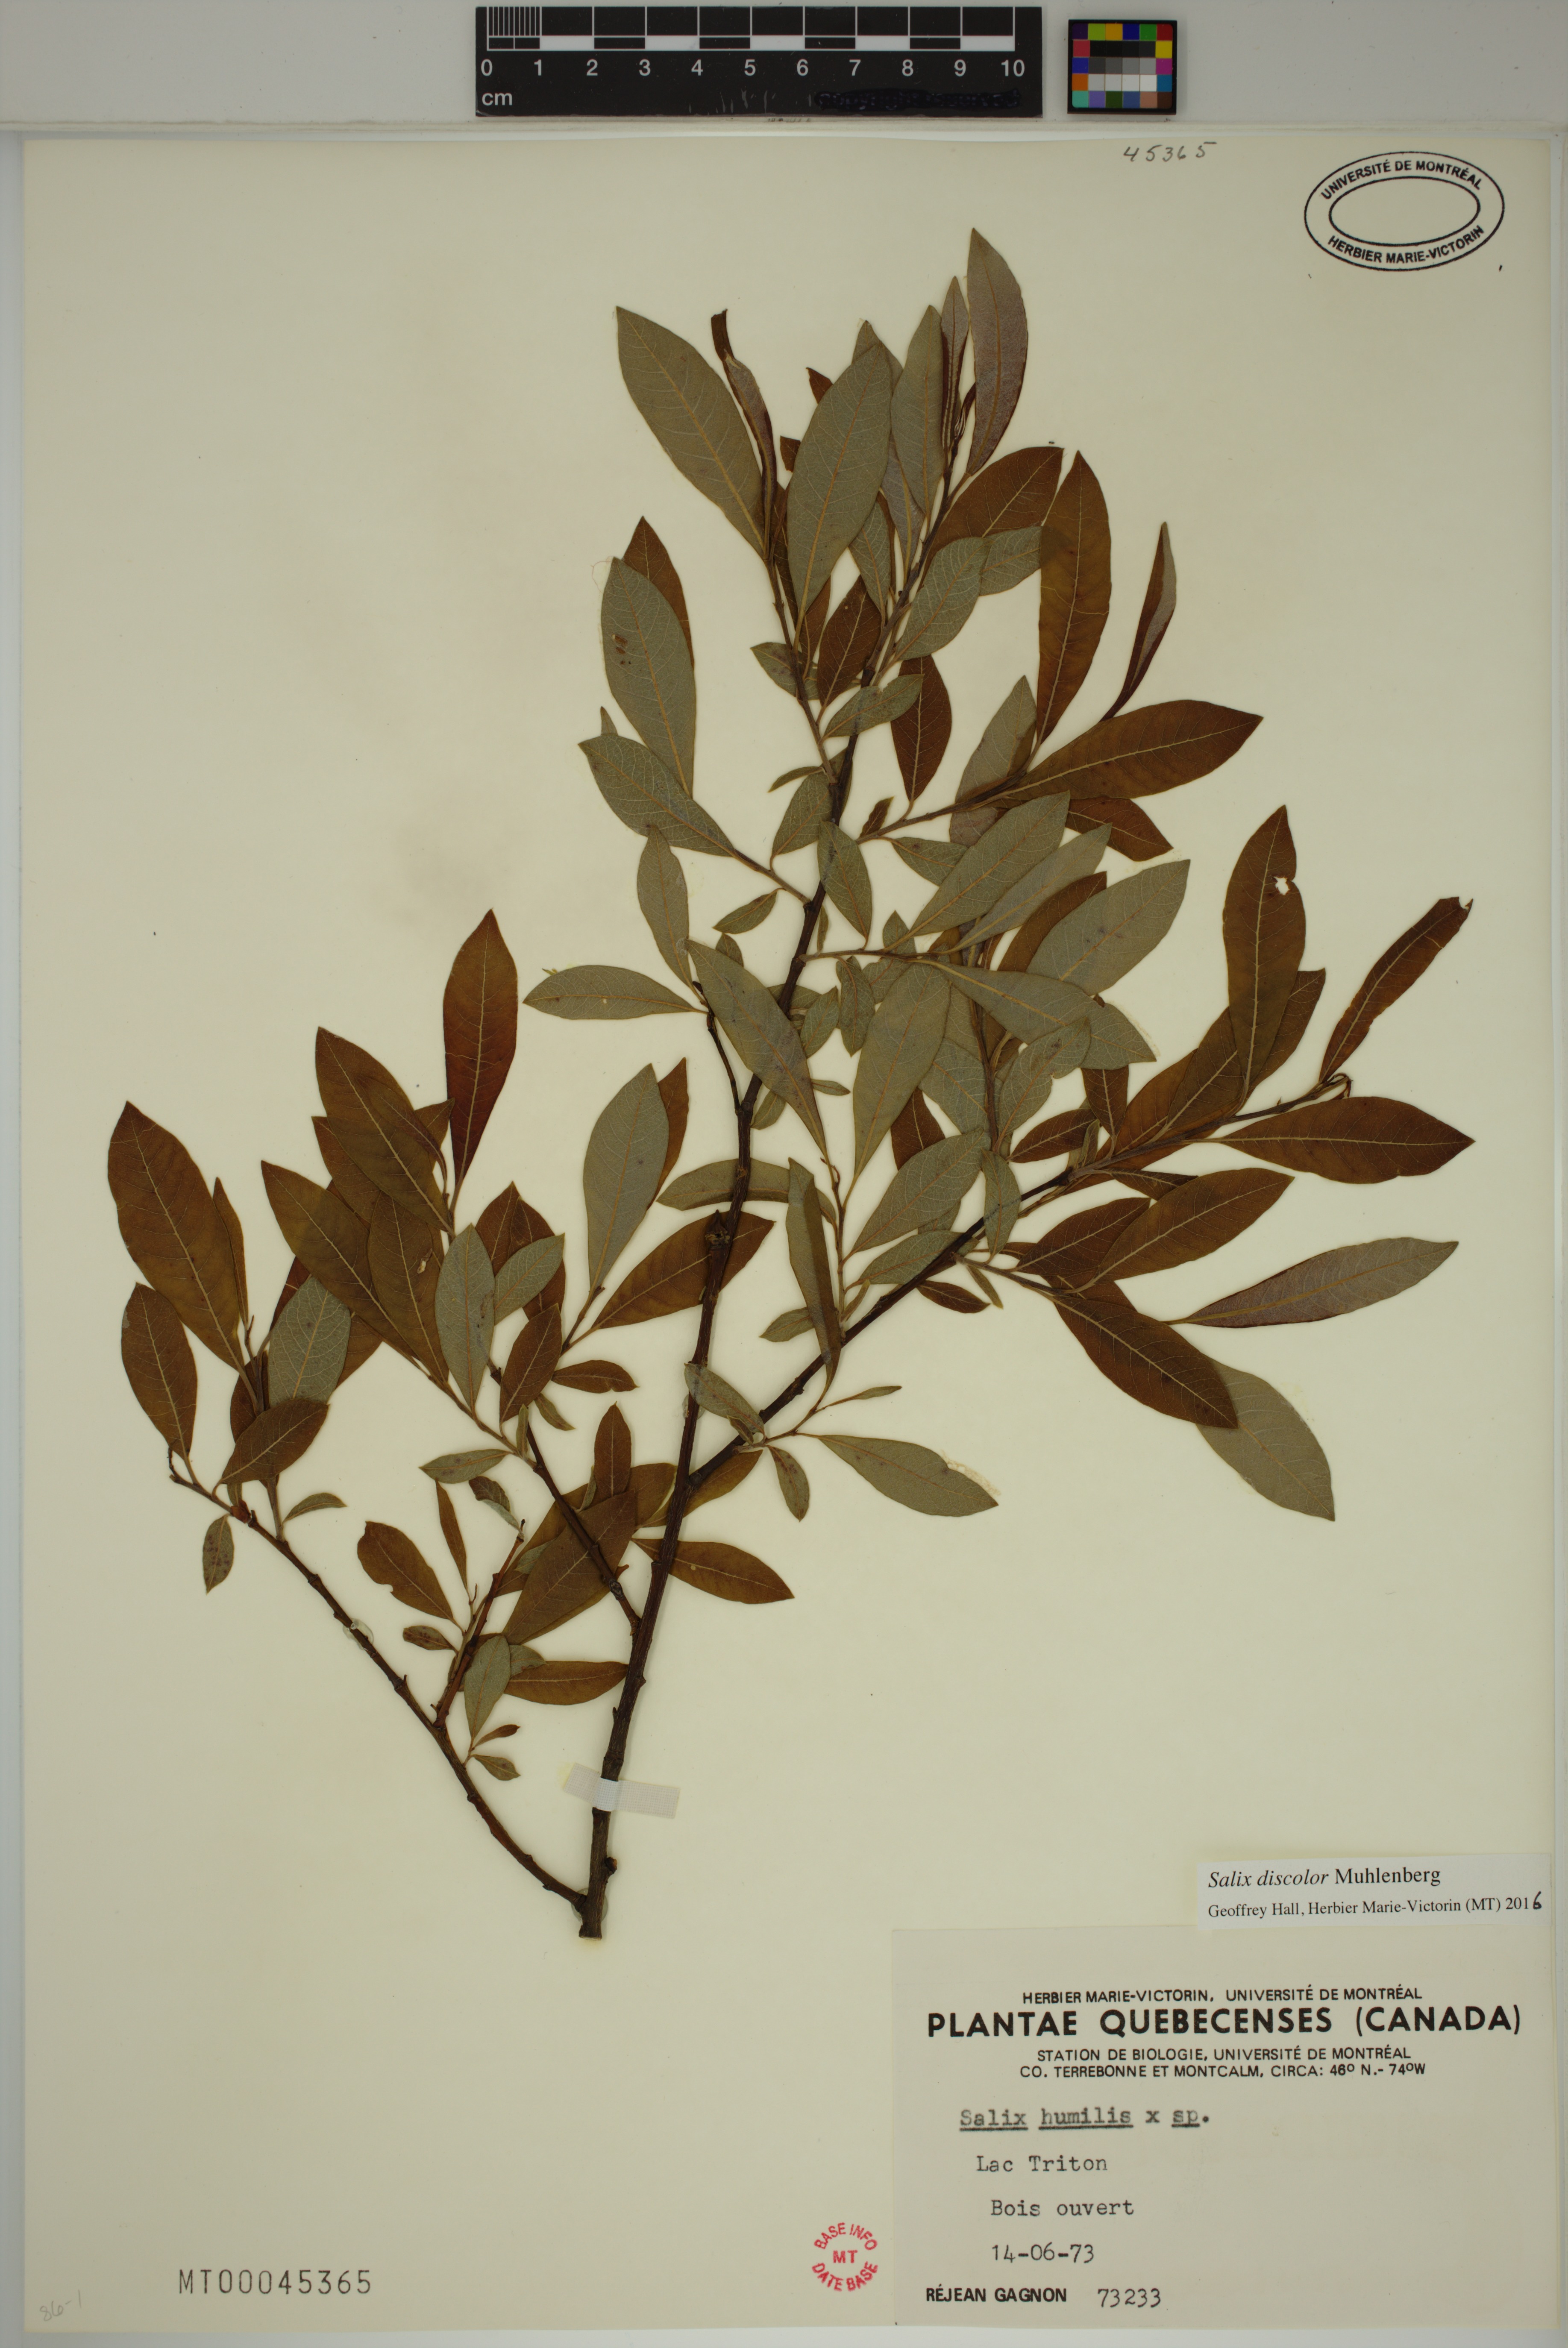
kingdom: Plantae
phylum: Tracheophyta
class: Magnoliopsida
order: Malpighiales
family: Salicaceae
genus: Salix
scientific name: Salix discolor
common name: Glaucous willow
